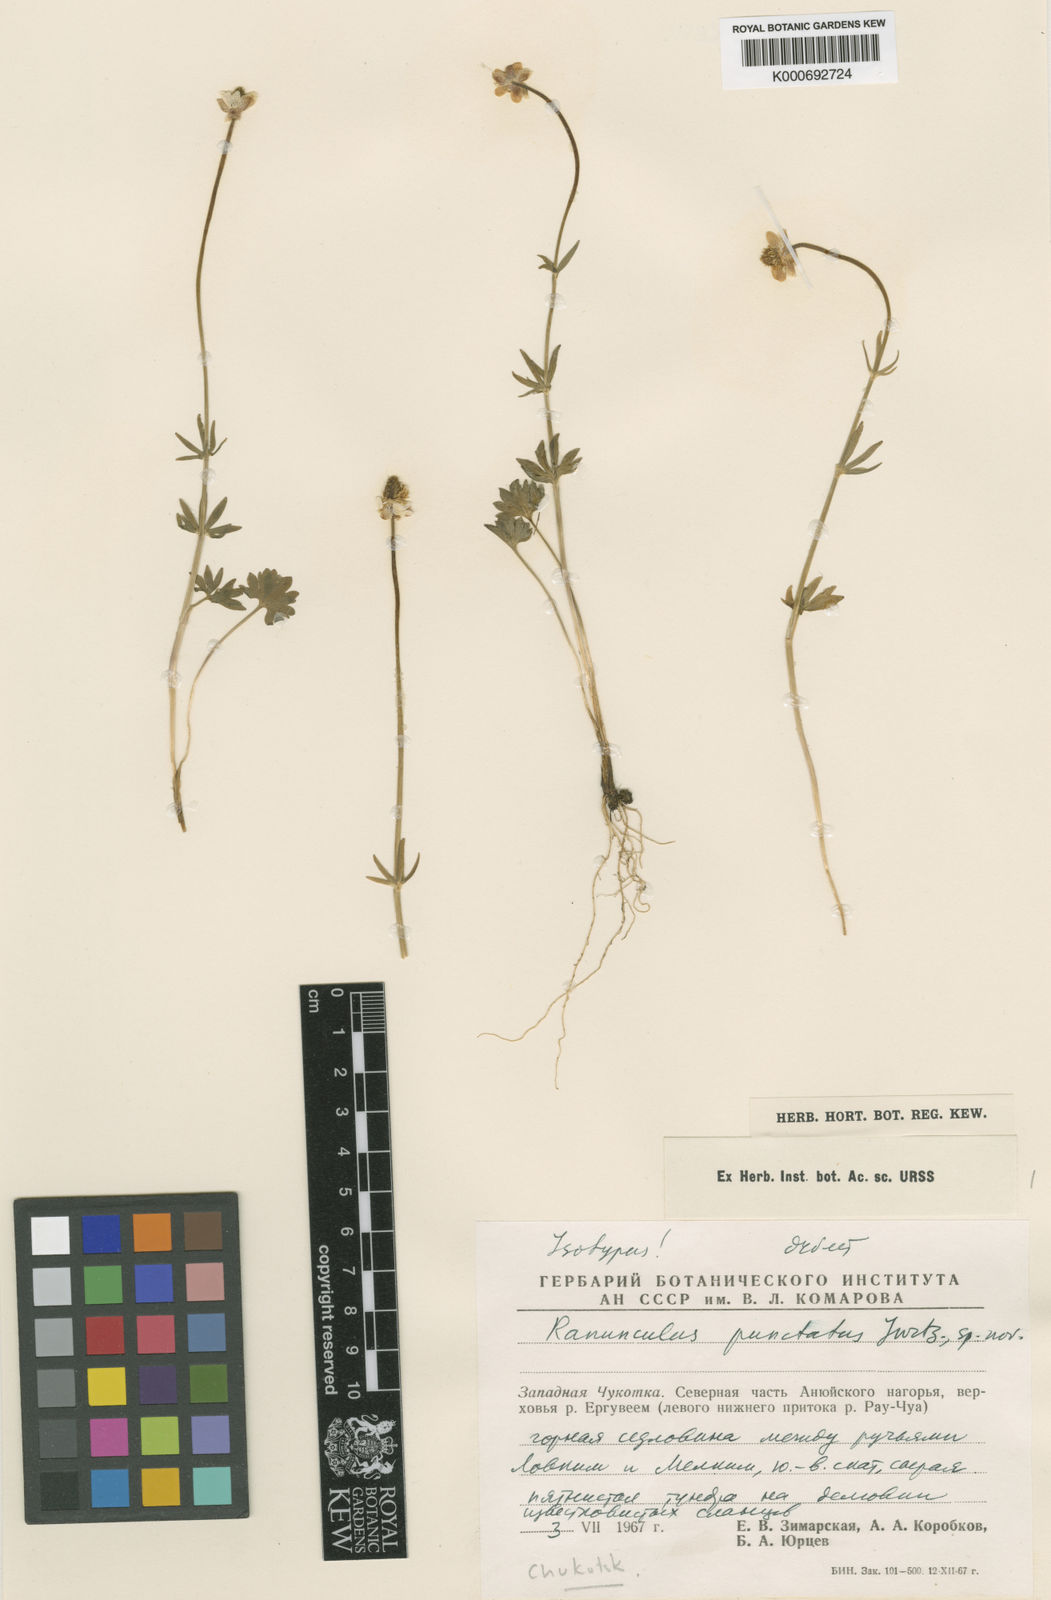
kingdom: Plantae
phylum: Tracheophyta
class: Magnoliopsida
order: Ranunculales
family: Ranunculaceae
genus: Ranunculus
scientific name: Ranunculus punctatus
